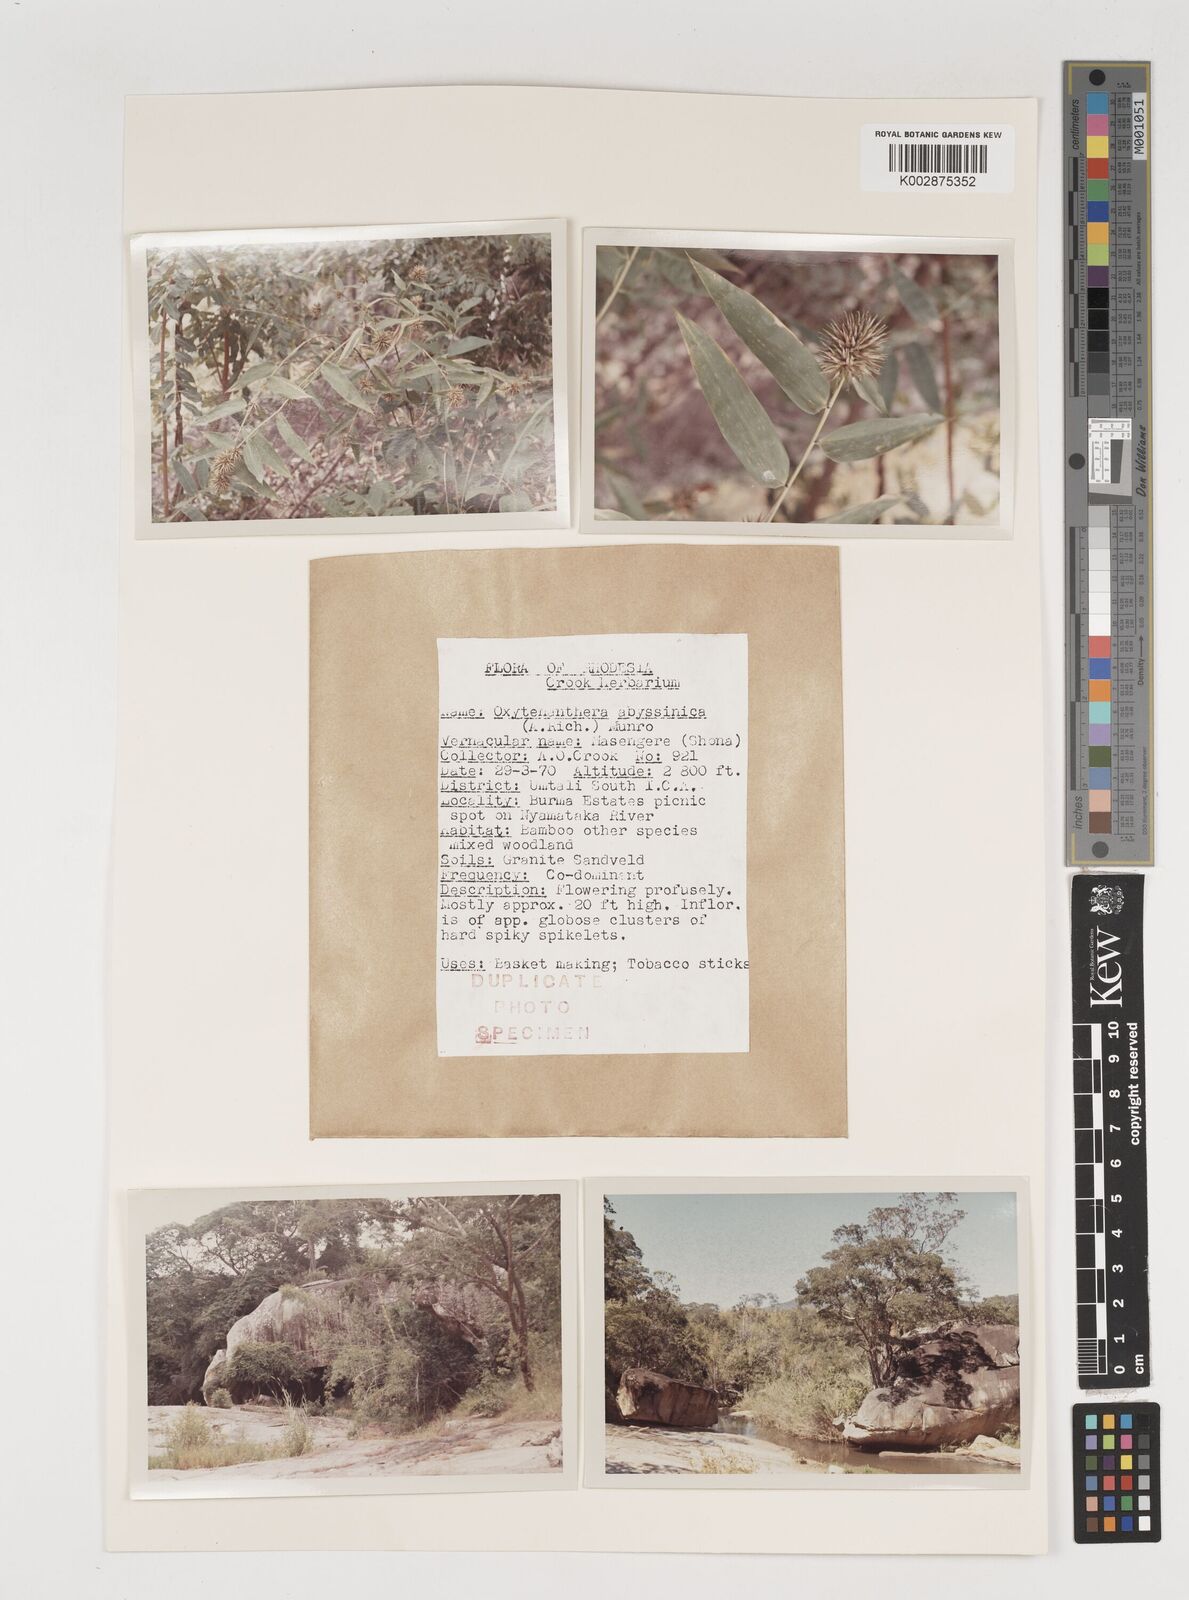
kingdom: Plantae
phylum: Tracheophyta
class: Liliopsida
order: Poales
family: Poaceae
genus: Oxytenanthera
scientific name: Oxytenanthera abyssinica
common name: Wine bamboo
